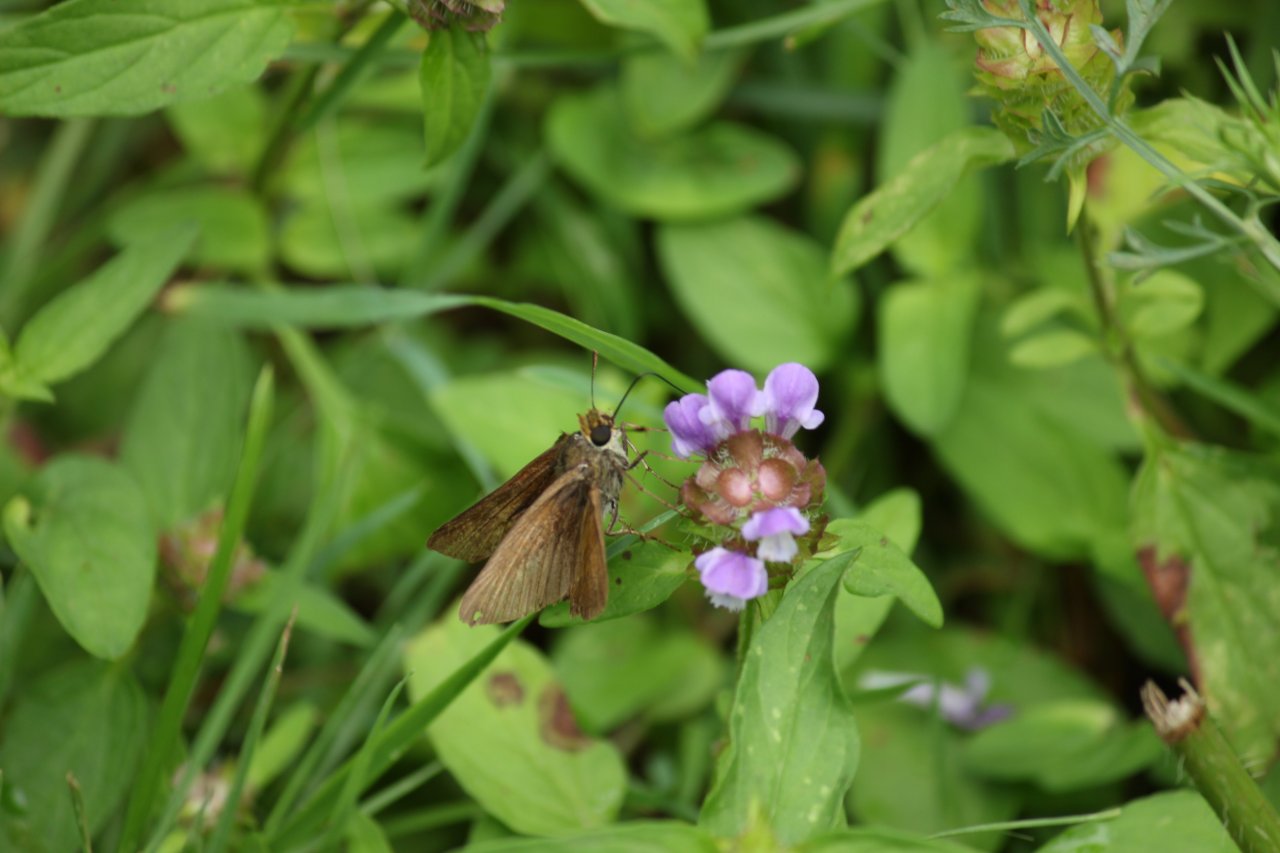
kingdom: Animalia
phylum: Arthropoda
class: Insecta
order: Lepidoptera
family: Hesperiidae
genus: Euphyes
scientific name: Euphyes vestris
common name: Dun Skipper
